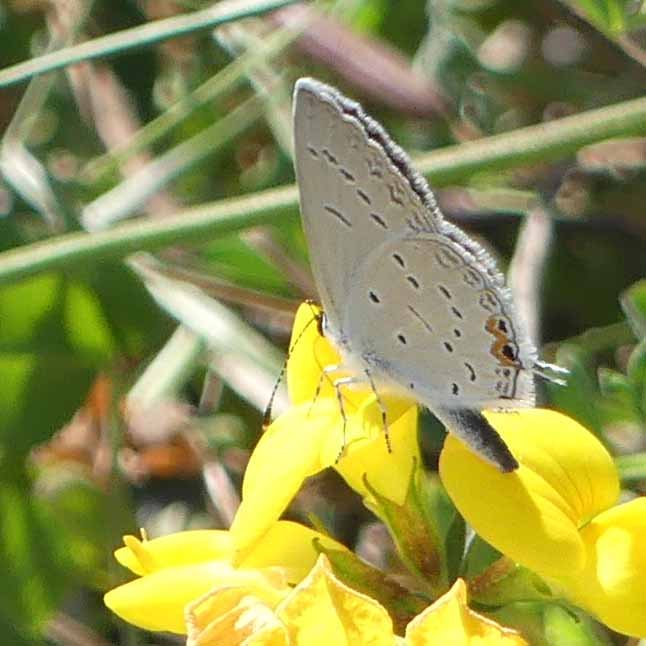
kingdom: Animalia
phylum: Arthropoda
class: Insecta
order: Lepidoptera
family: Lycaenidae
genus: Elkalyce
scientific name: Elkalyce comyntas
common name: Eastern Tailed-Blue
